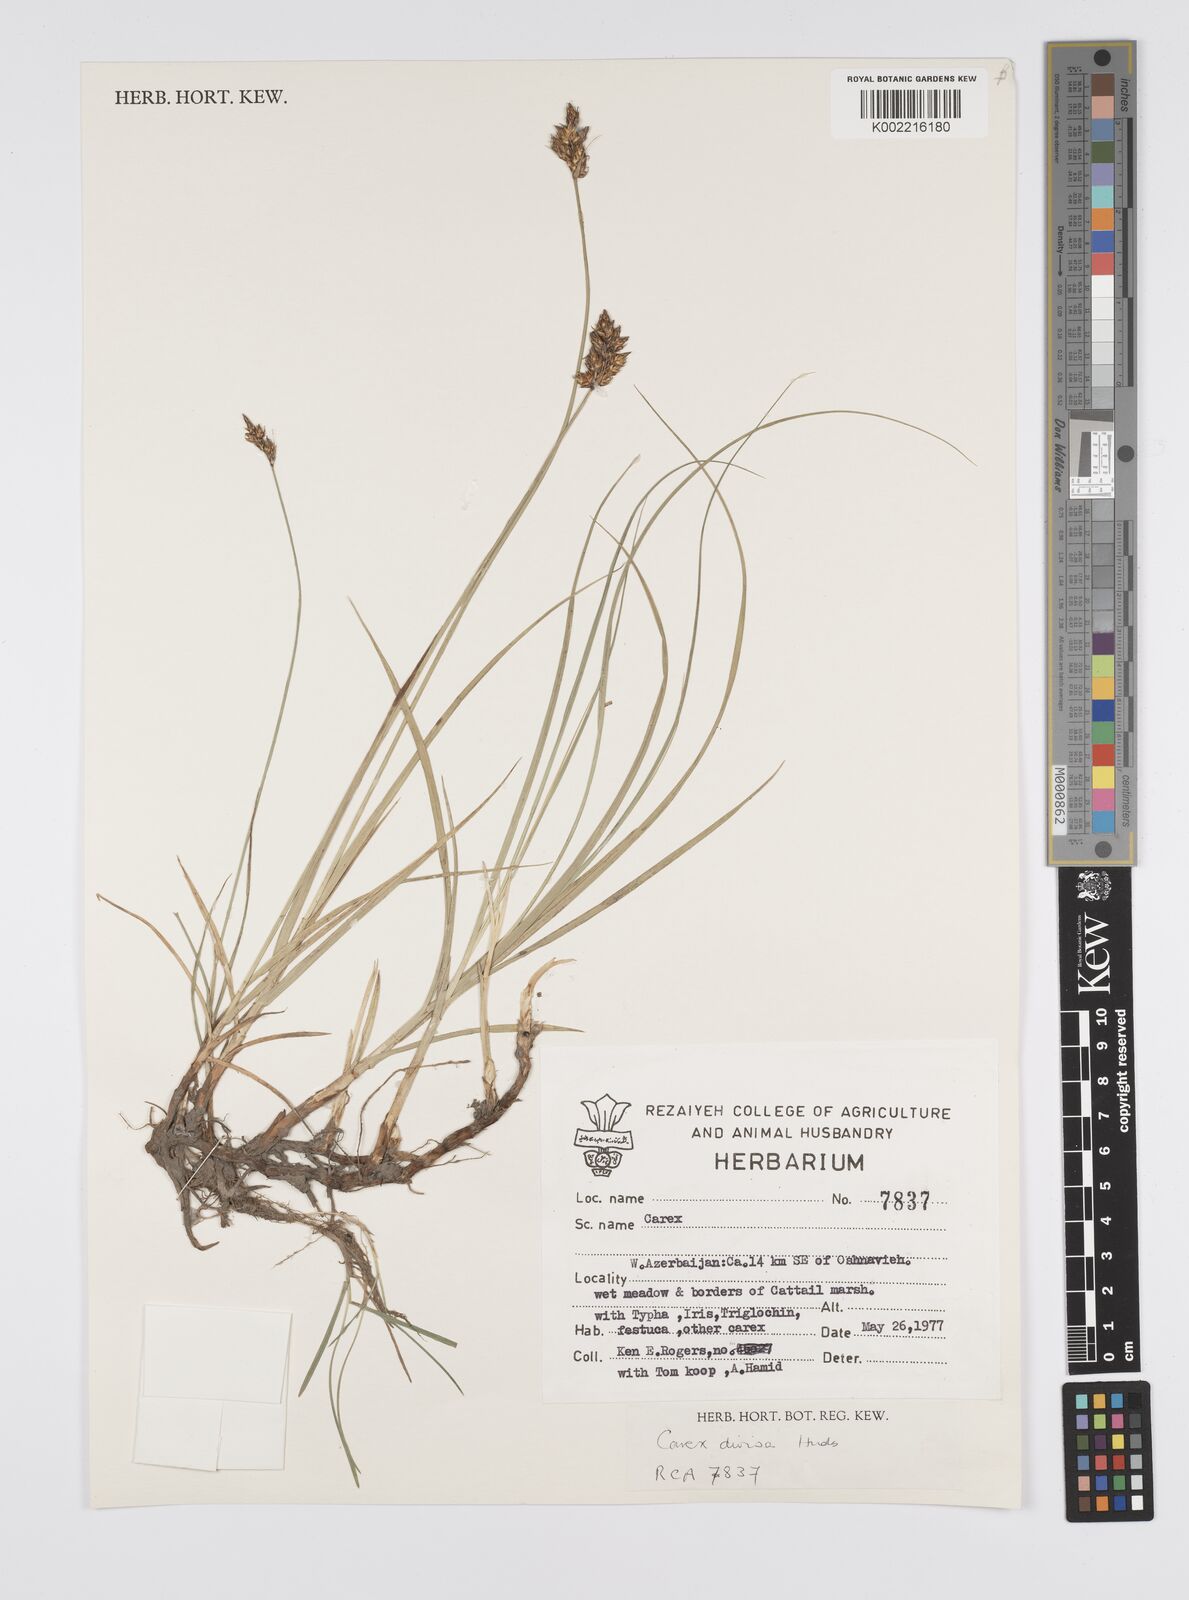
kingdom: Plantae
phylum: Tracheophyta
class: Liliopsida
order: Poales
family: Cyperaceae
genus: Carex
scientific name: Carex divisa
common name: Divided sedge
